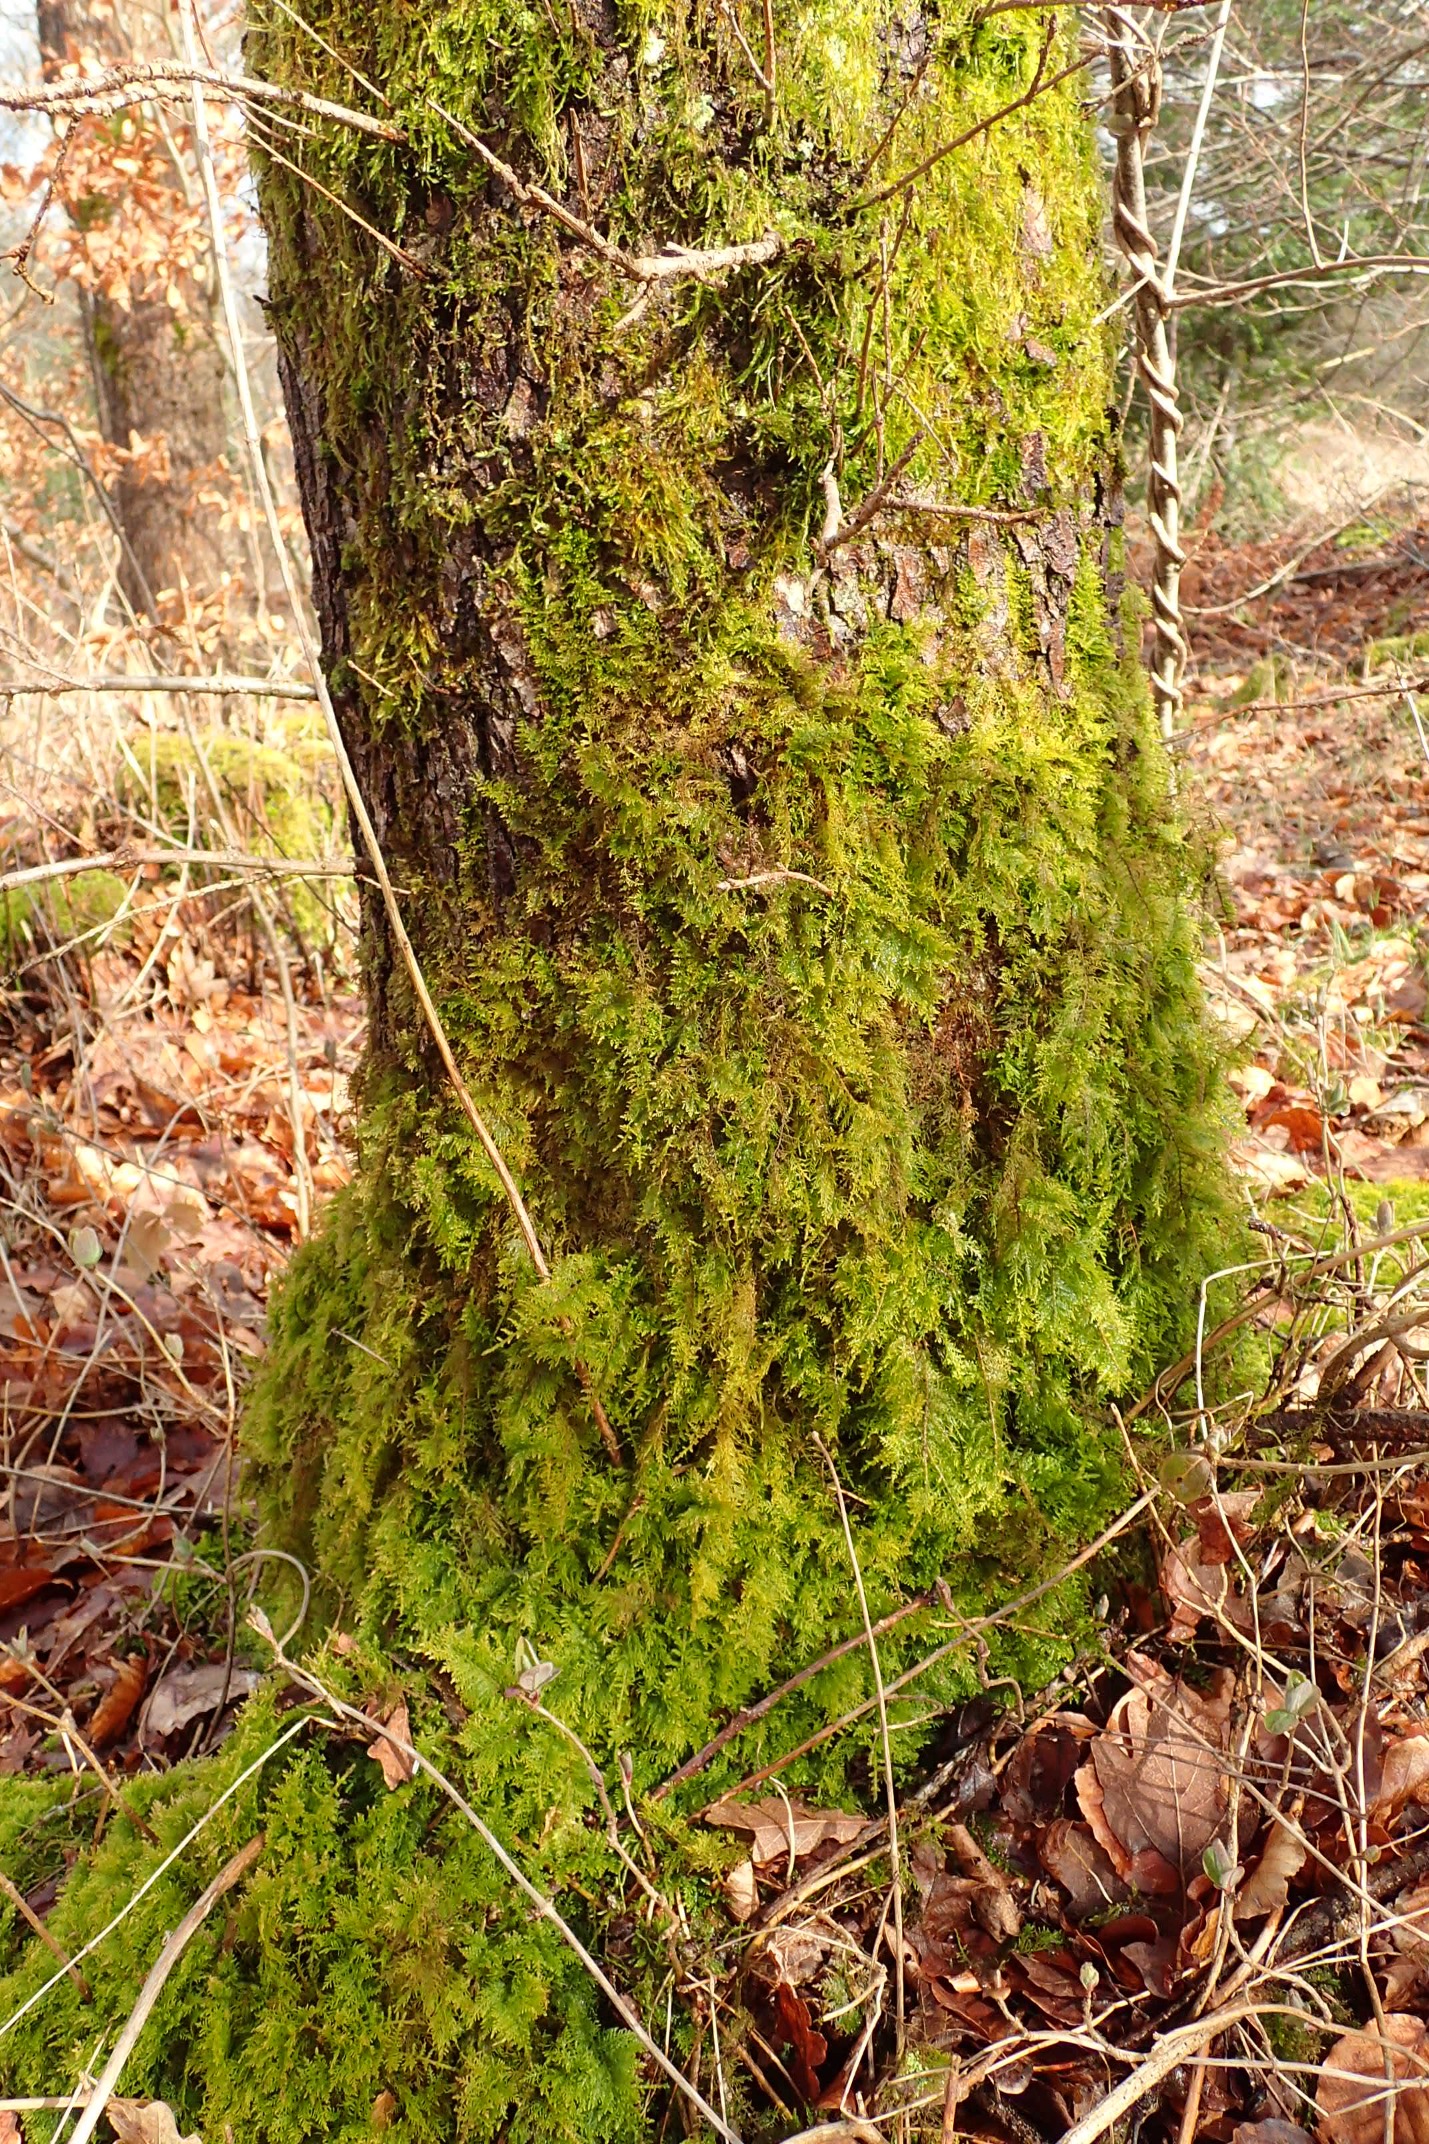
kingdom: Plantae
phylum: Bryophyta
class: Bryopsida
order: Hypnales
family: Thuidiaceae
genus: Thuidium
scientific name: Thuidium tamariscinum
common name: Pryd-bregnemos
